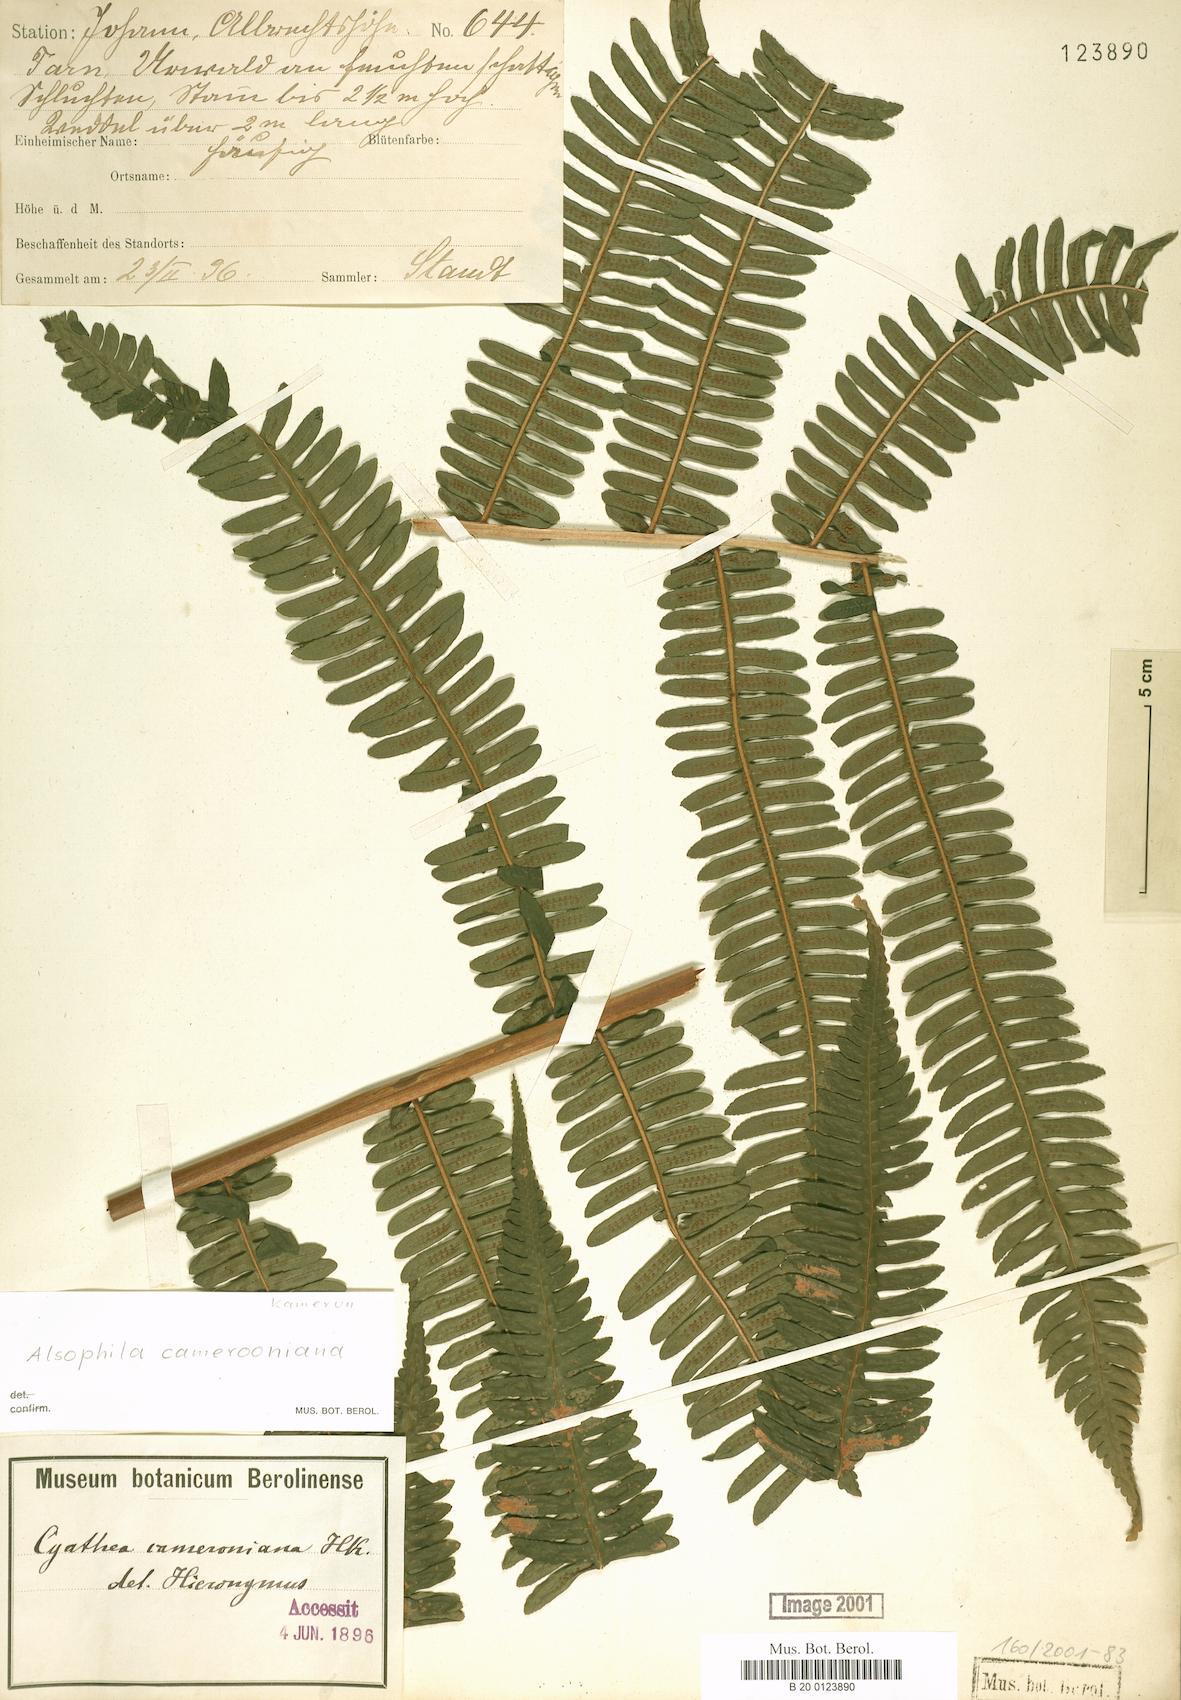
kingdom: Plantae
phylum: Tracheophyta
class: Polypodiopsida
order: Cyatheales
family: Cyatheaceae
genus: Alsophila
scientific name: Alsophila camerooniana
